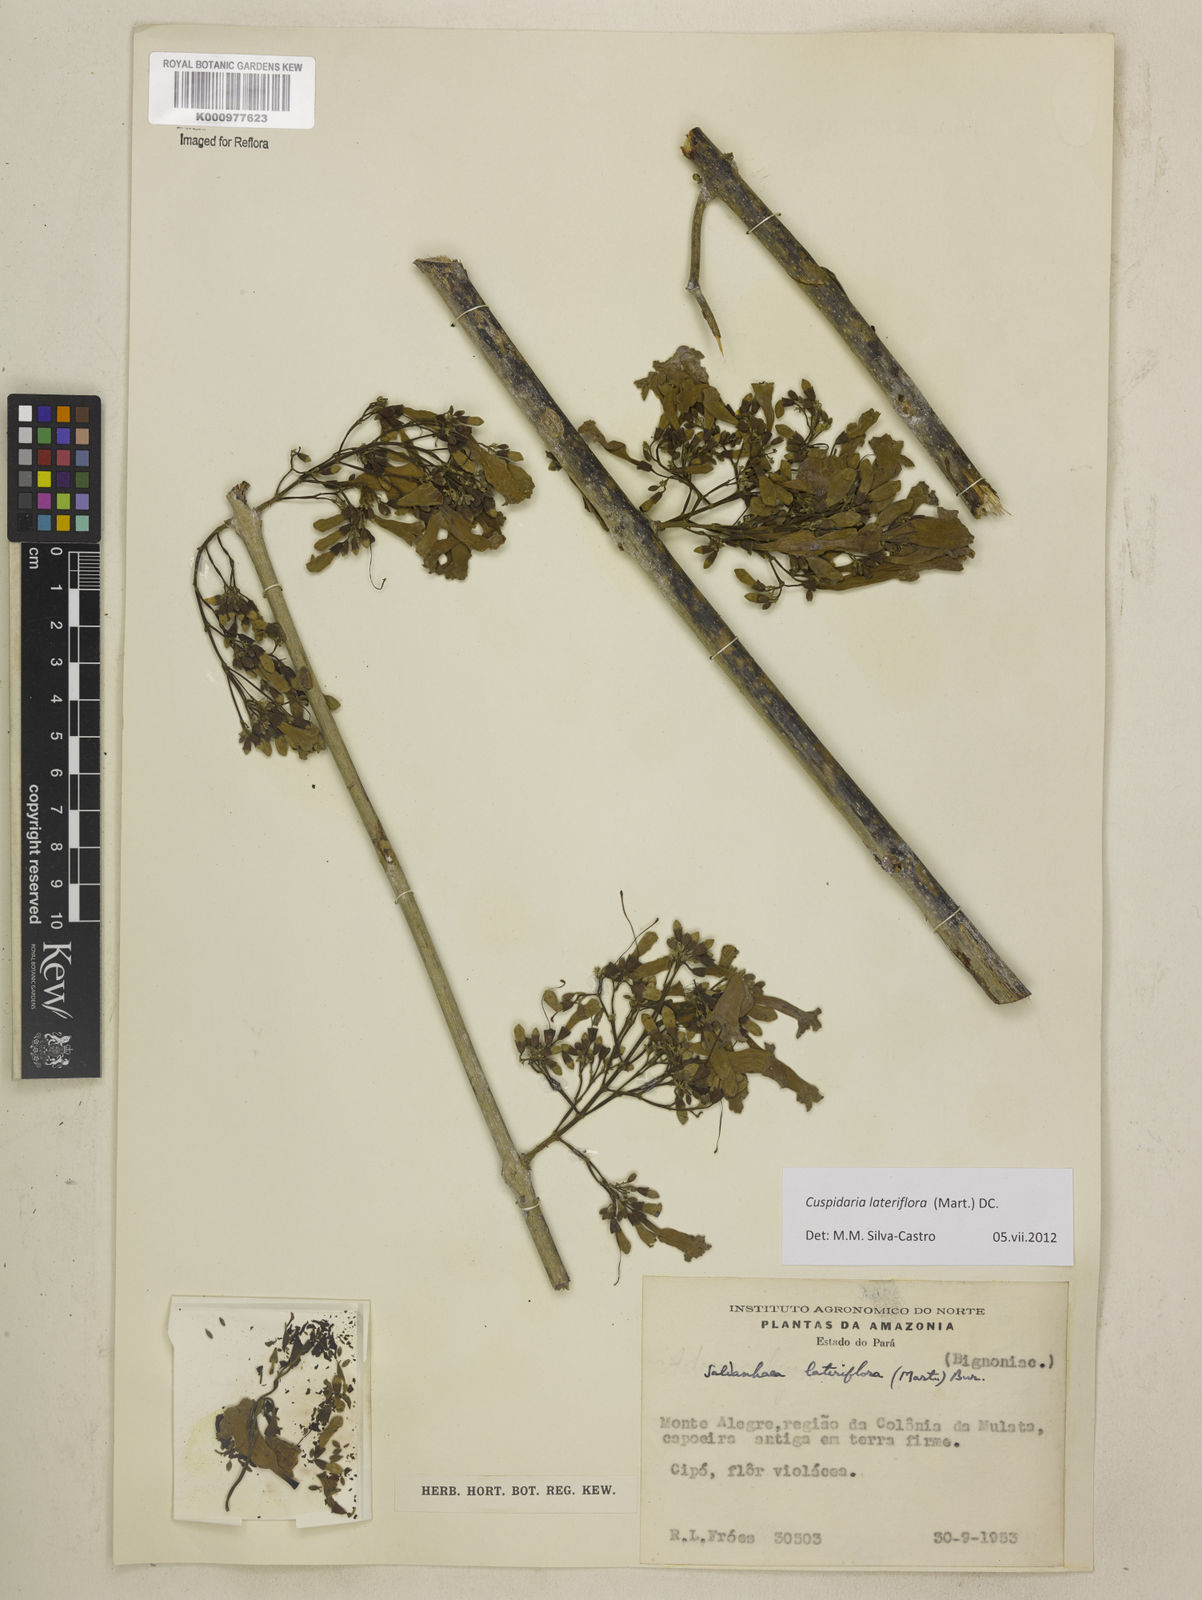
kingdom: Plantae
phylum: Tracheophyta
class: Magnoliopsida
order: Lamiales
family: Bignoniaceae
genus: Cuspidaria
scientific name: Cuspidaria lateriflora
